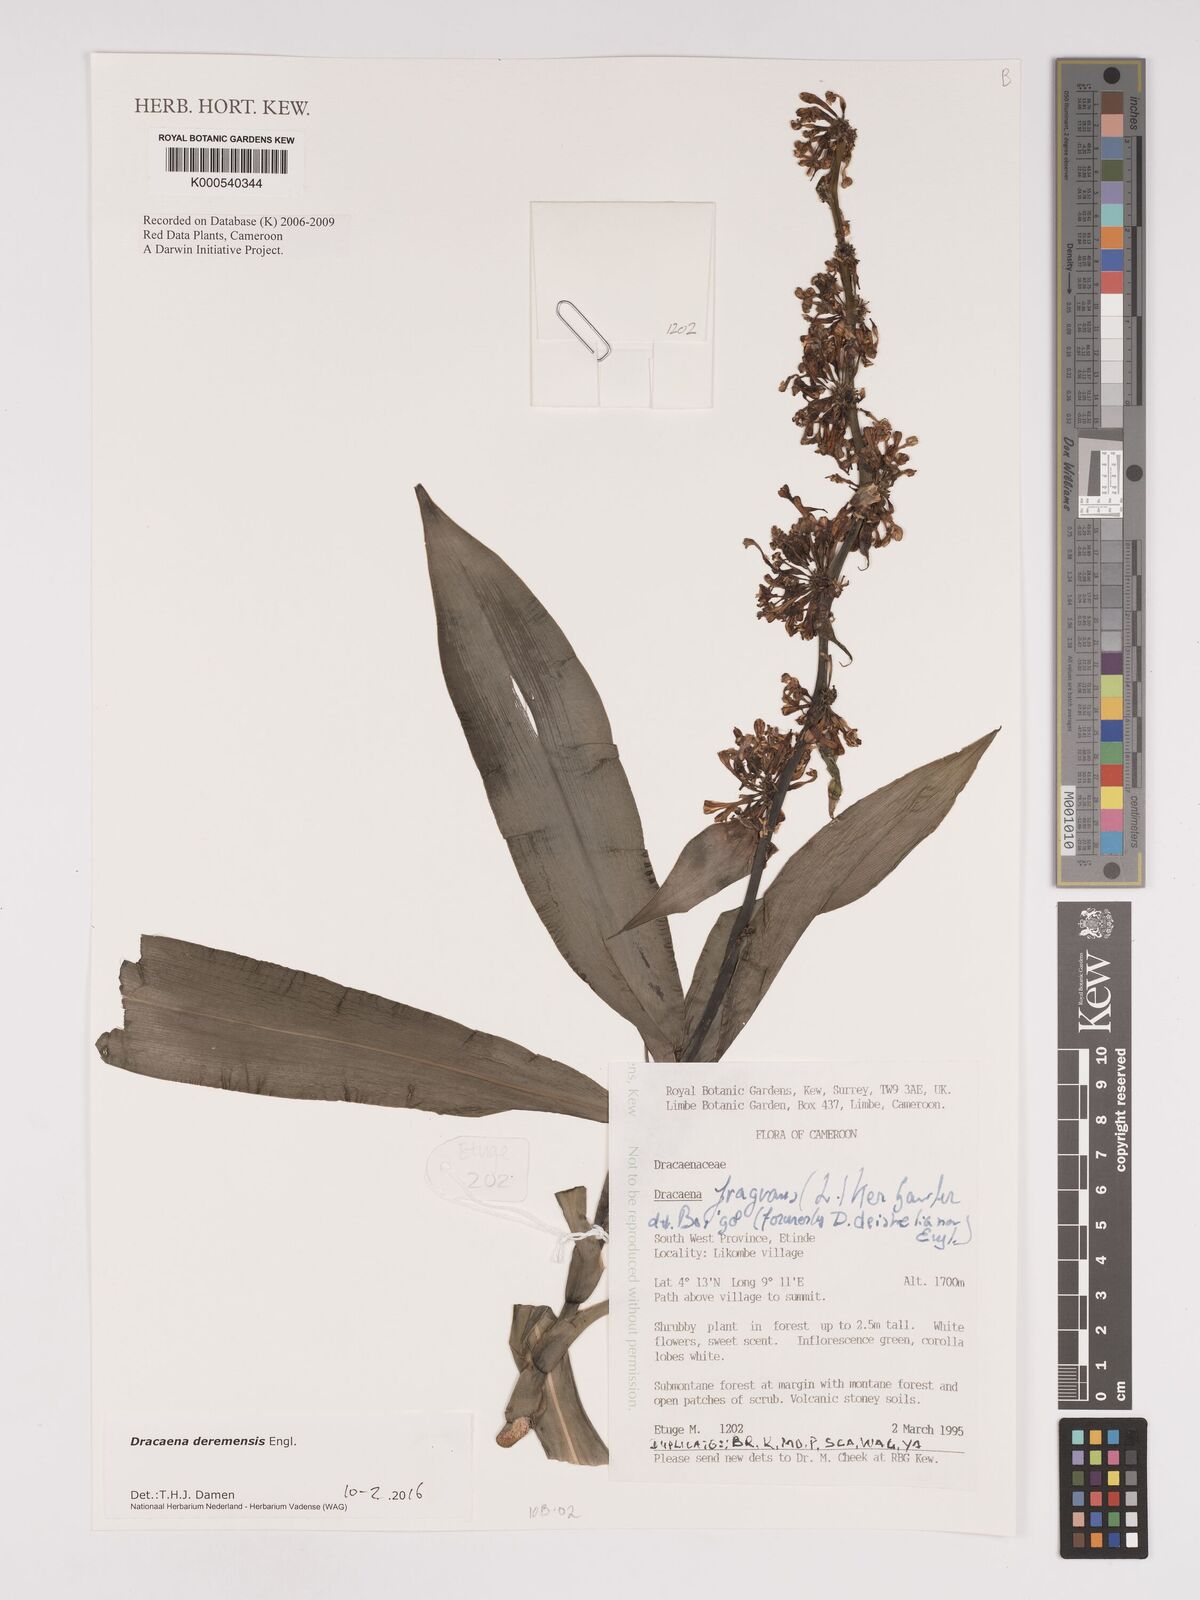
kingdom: Plantae
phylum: Tracheophyta
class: Liliopsida
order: Asparagales
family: Asparagaceae
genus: Dracaena
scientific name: Dracaena fragrans
